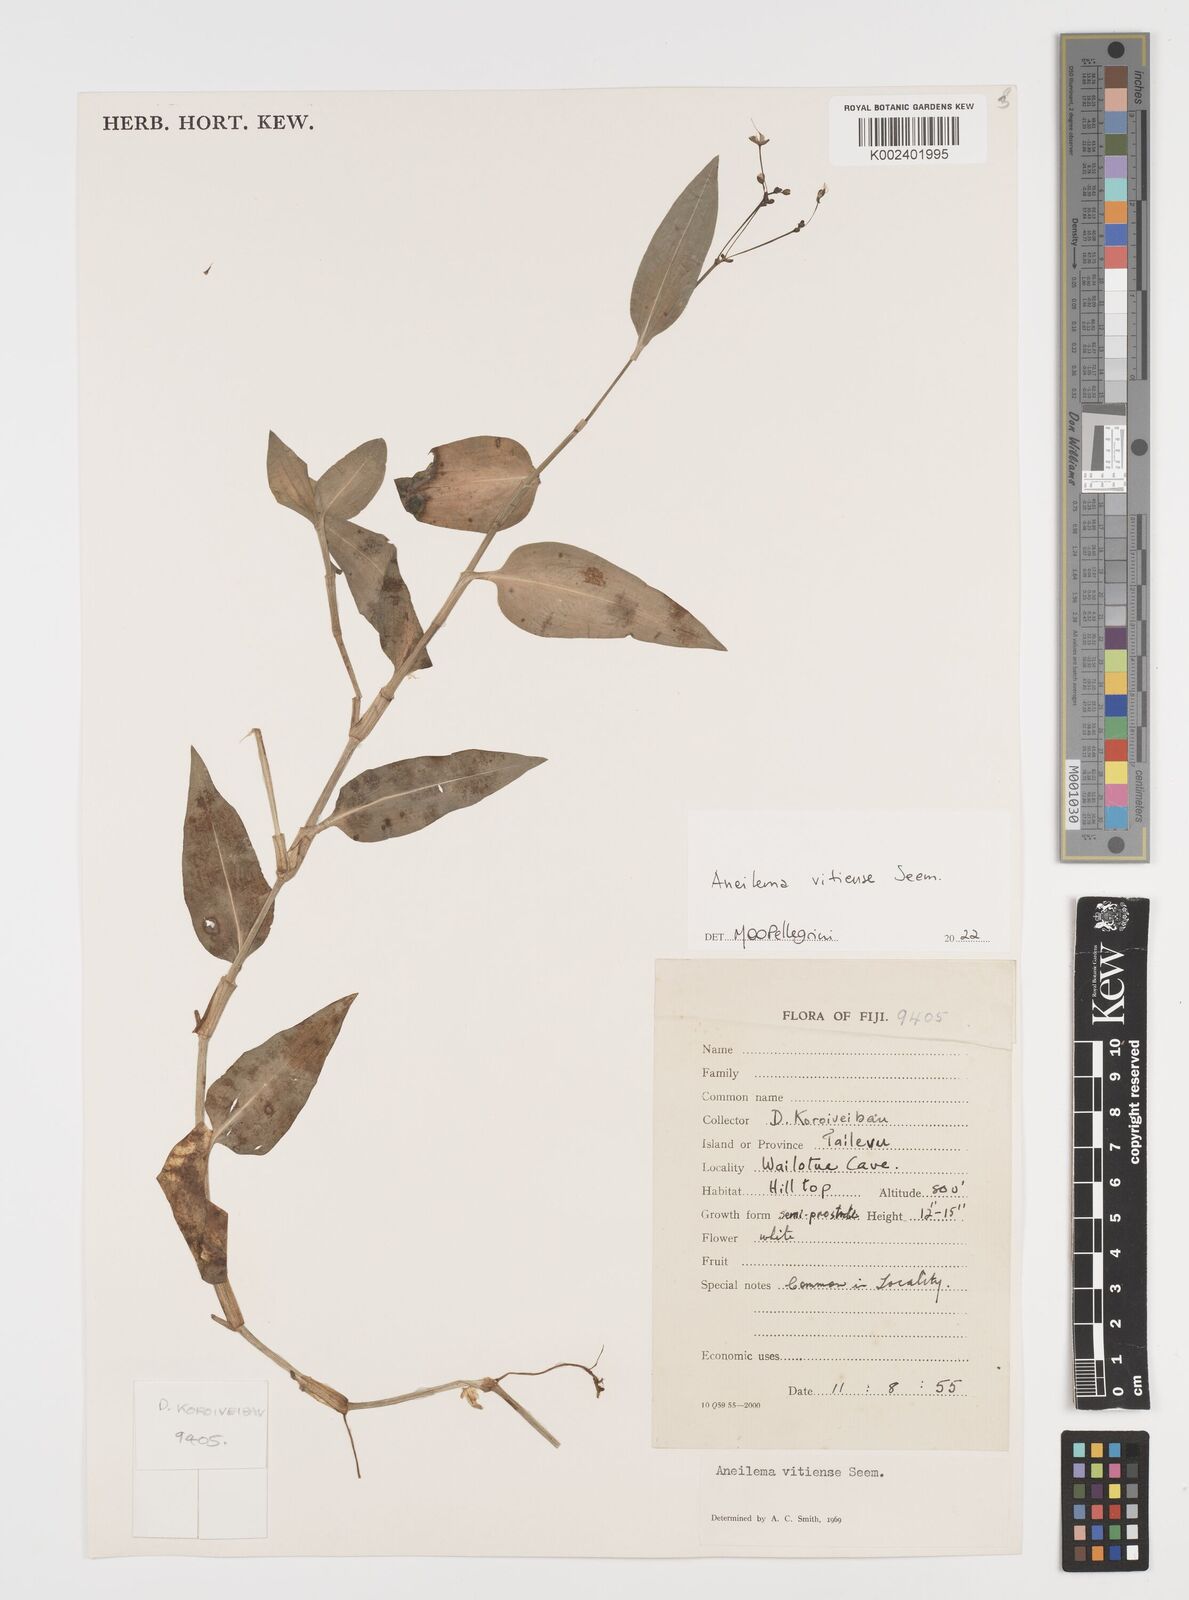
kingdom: Plantae
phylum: Tracheophyta
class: Liliopsida
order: Commelinales
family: Commelinaceae
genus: Rhopalephora
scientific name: Rhopalephora vitiensis
